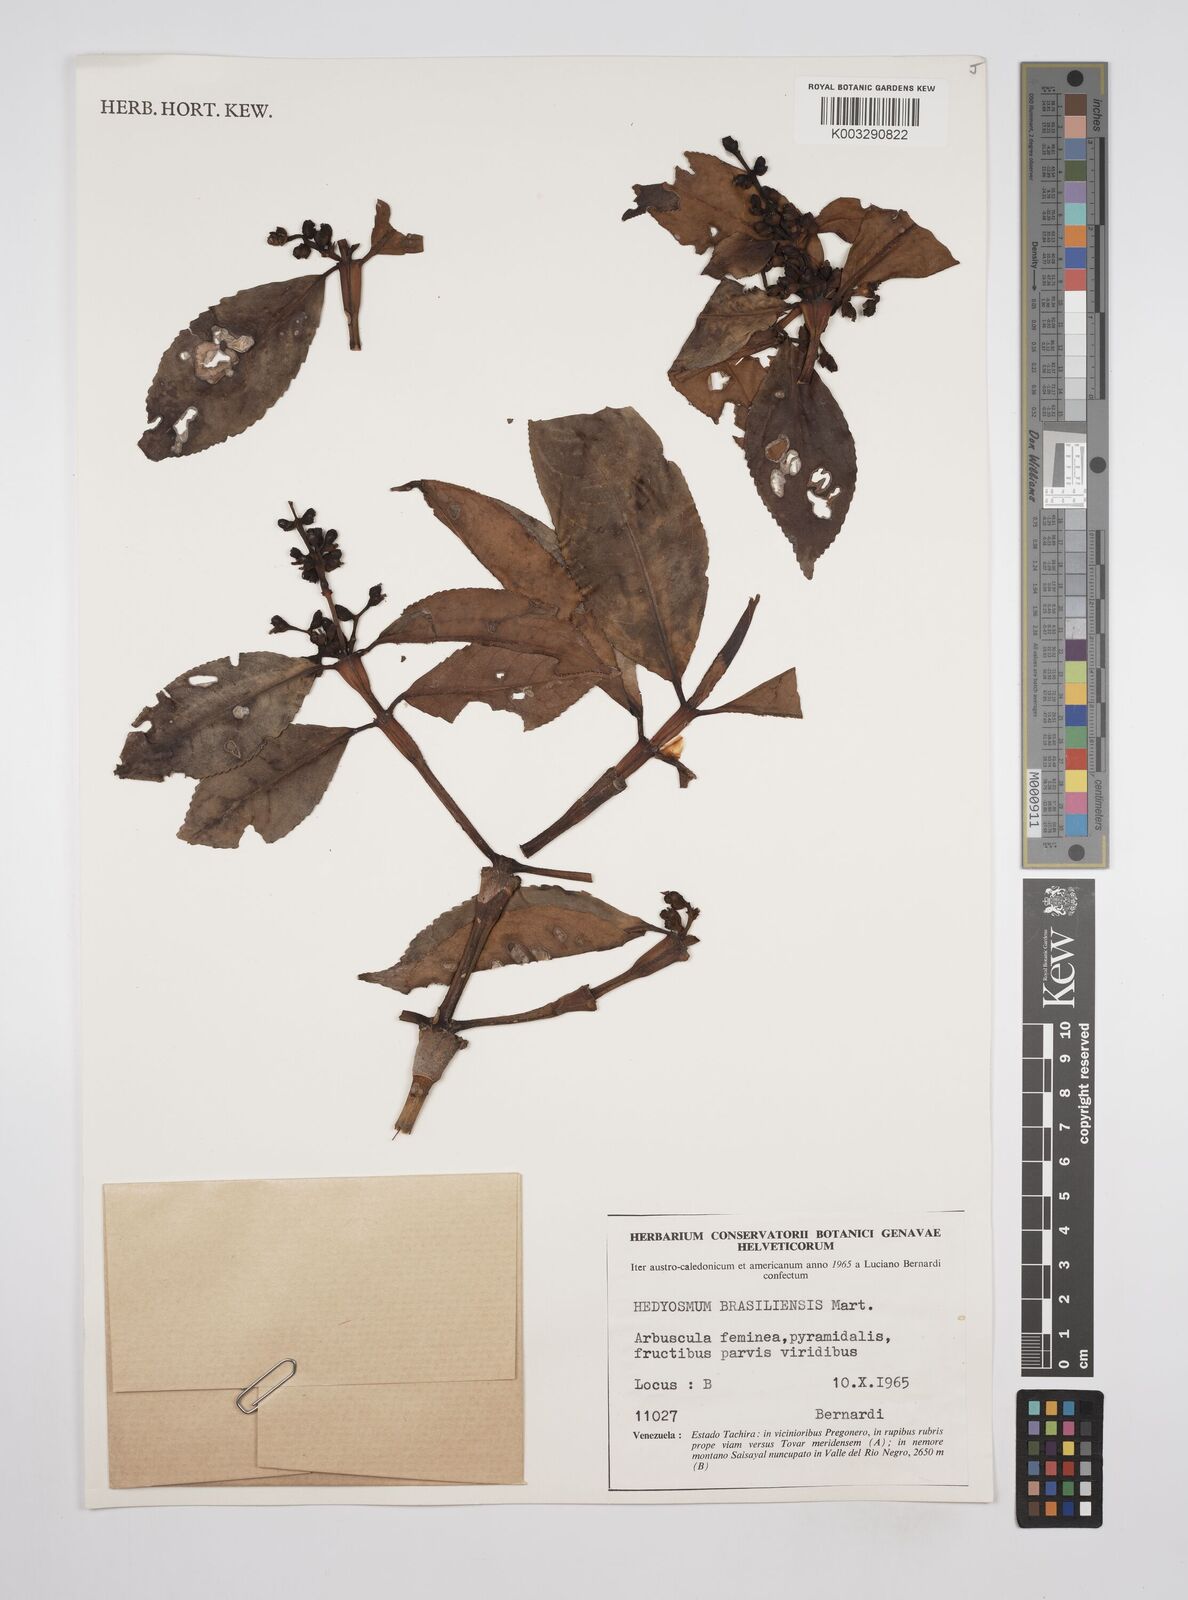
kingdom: Plantae
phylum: Tracheophyta
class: Magnoliopsida
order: Chloranthales
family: Chloranthaceae
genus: Hedyosmum
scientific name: Hedyosmum brasiliense
